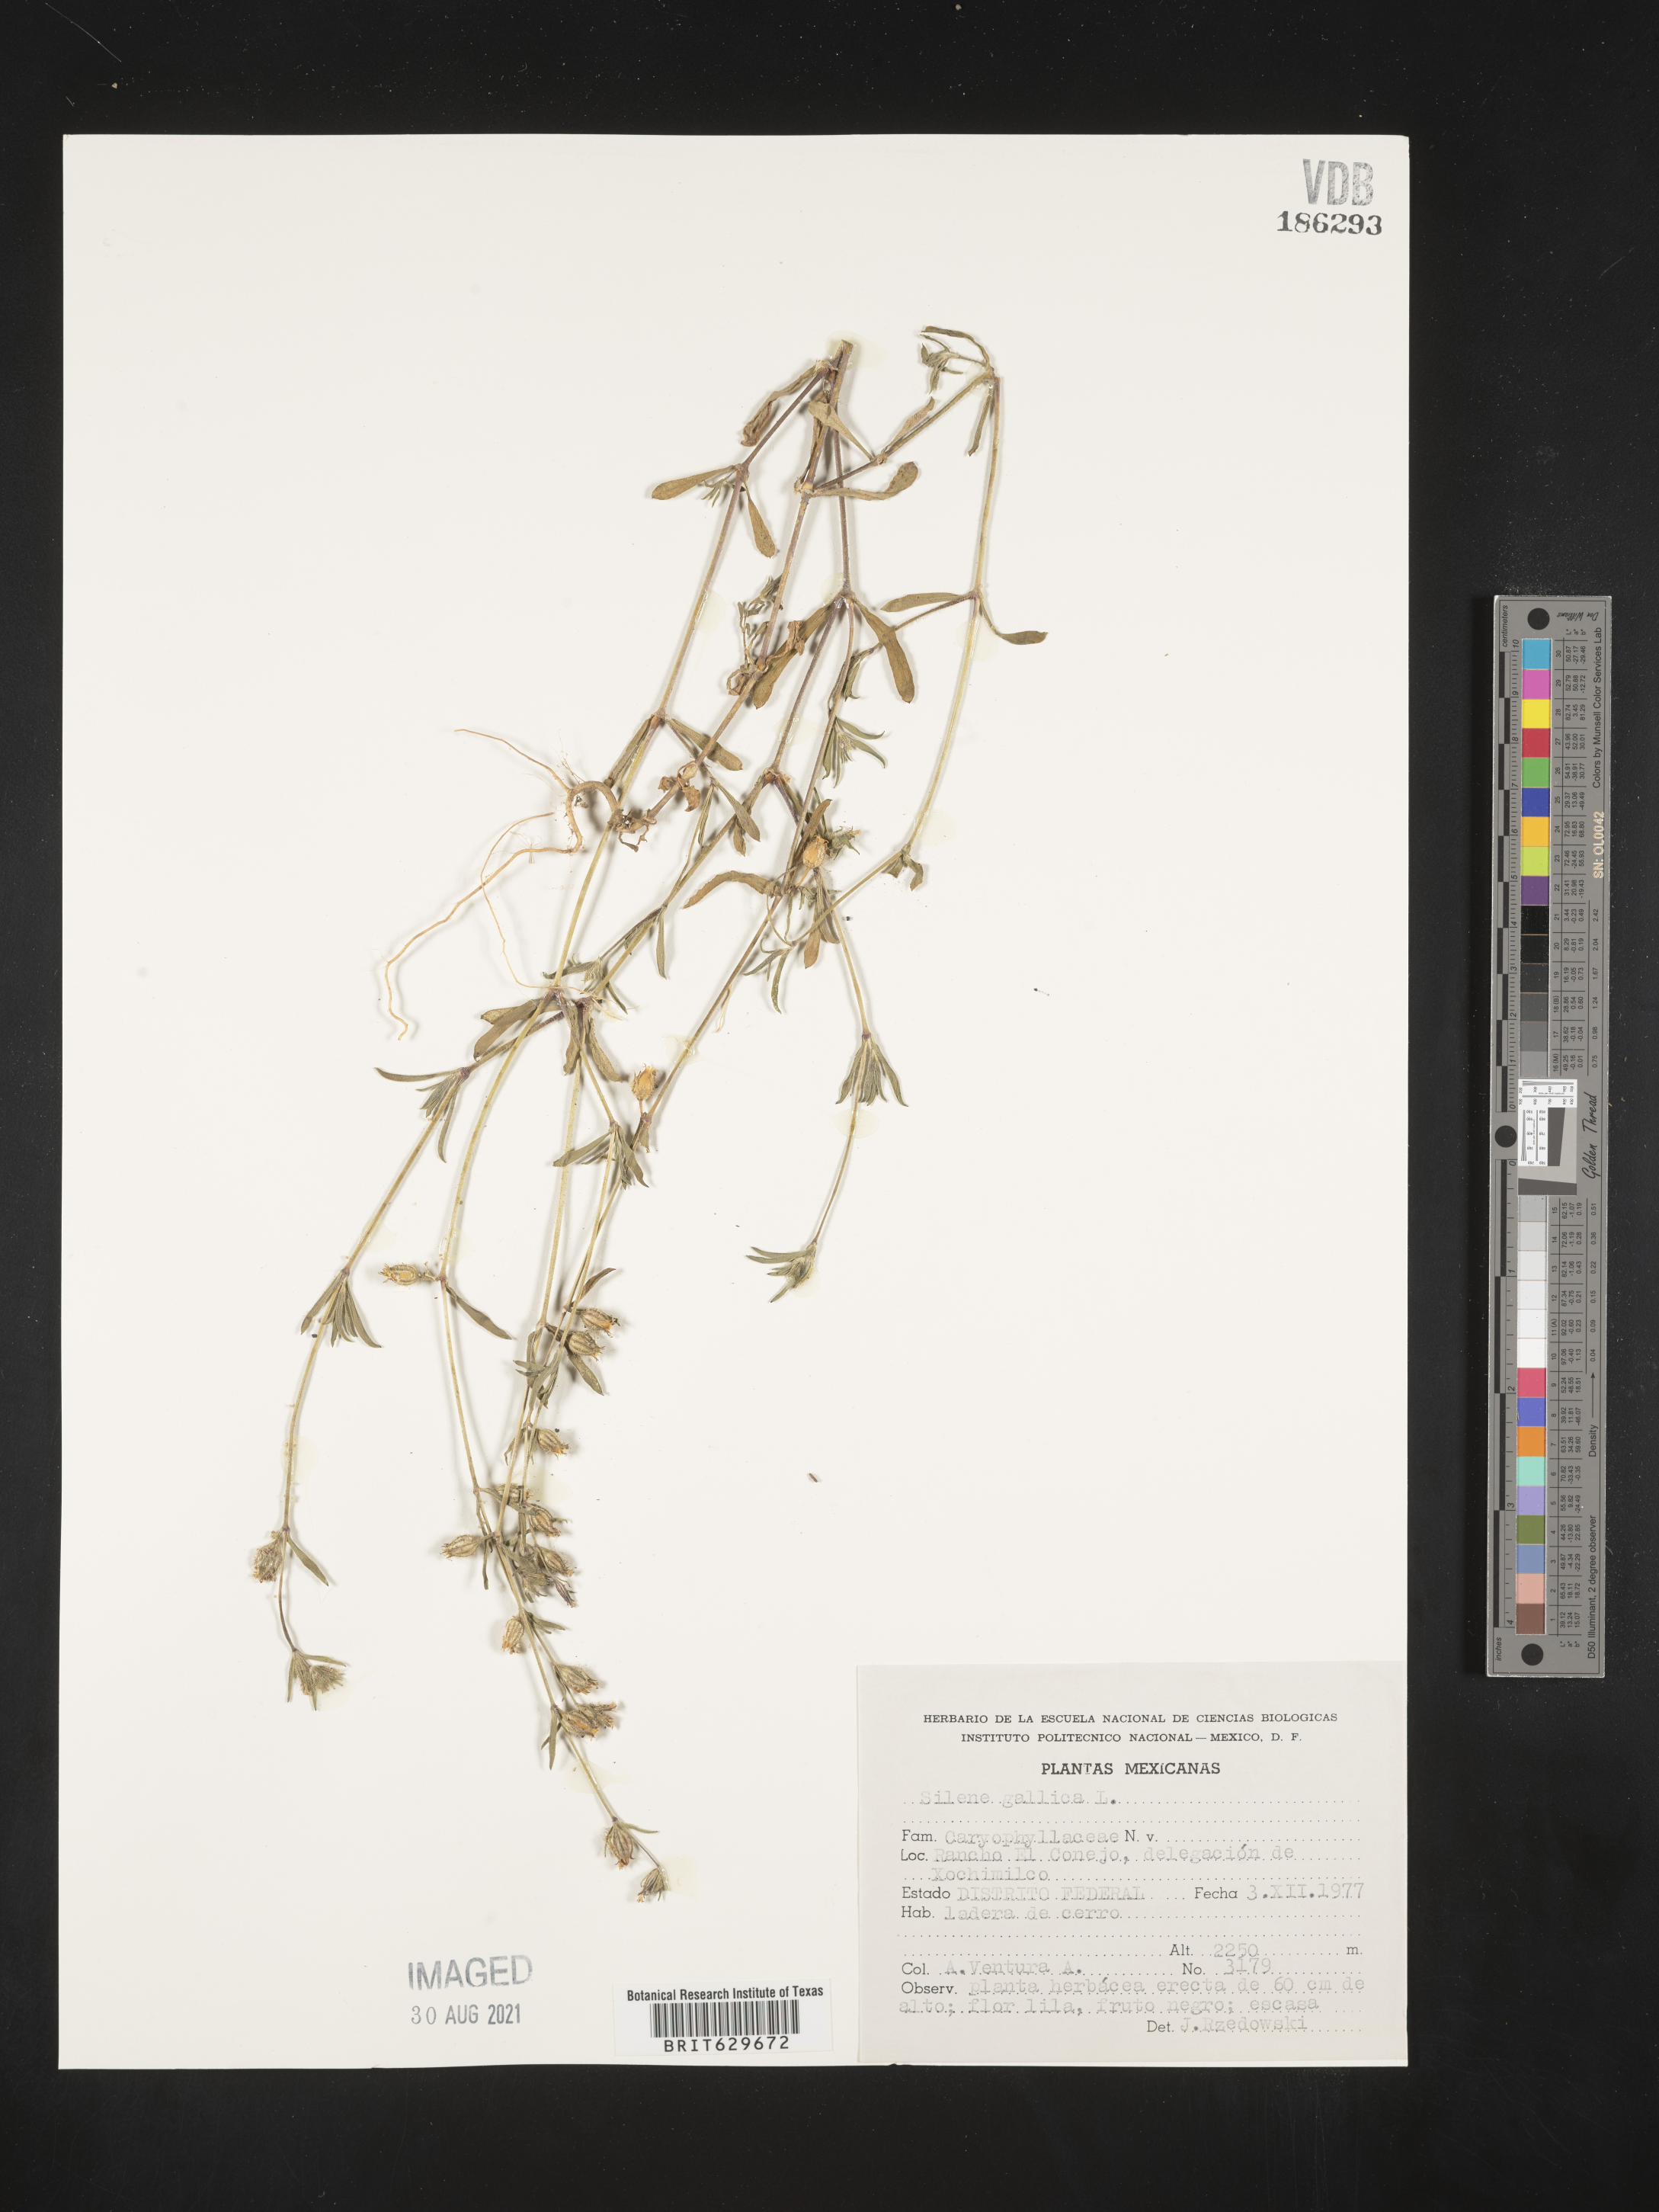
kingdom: Plantae
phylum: Tracheophyta
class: Magnoliopsida
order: Caryophyllales
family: Caryophyllaceae
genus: Silene
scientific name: Silene
